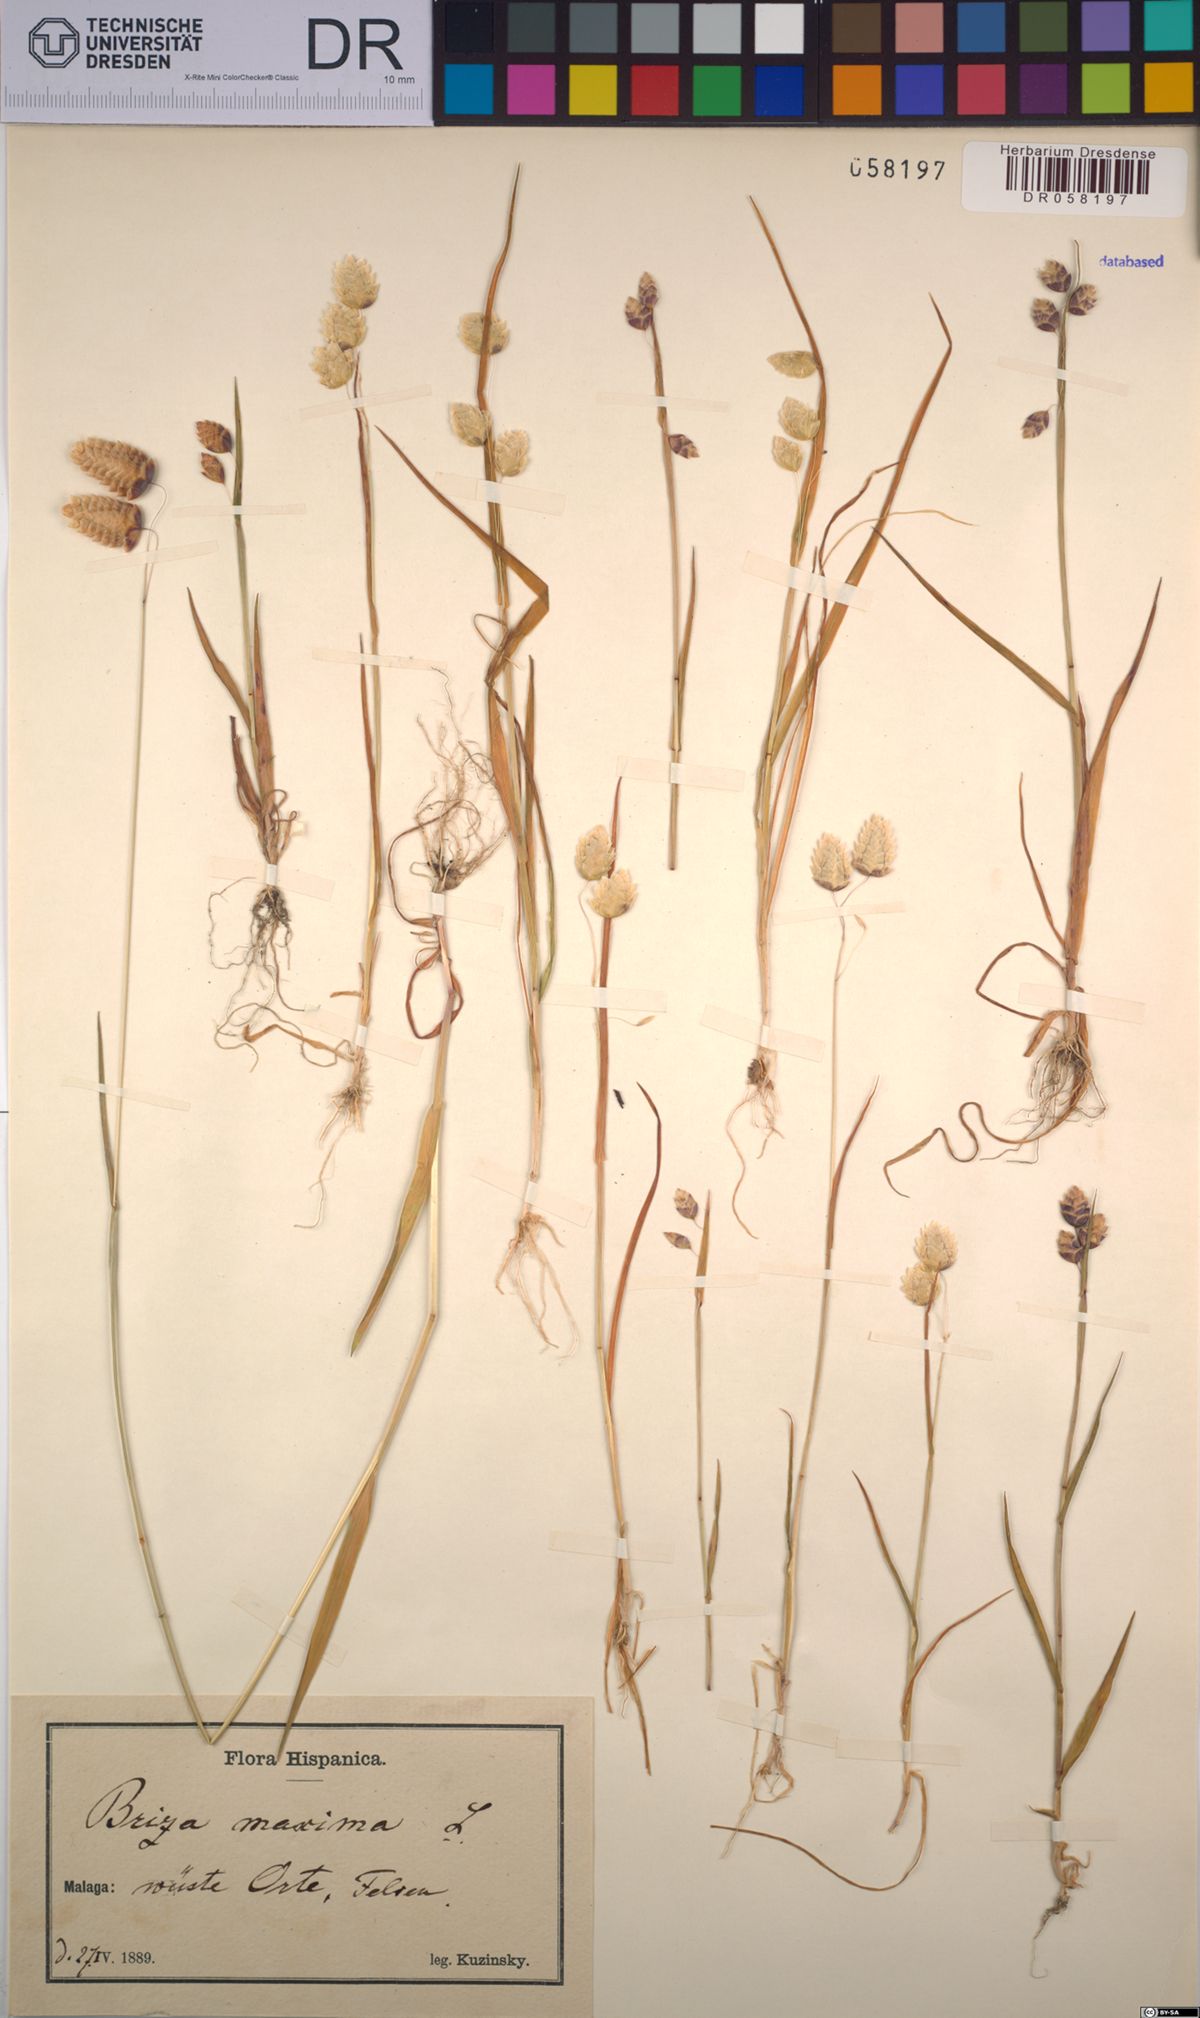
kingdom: Plantae
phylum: Tracheophyta
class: Liliopsida
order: Poales
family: Poaceae
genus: Briza
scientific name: Briza maxima
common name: Big quakinggrass
